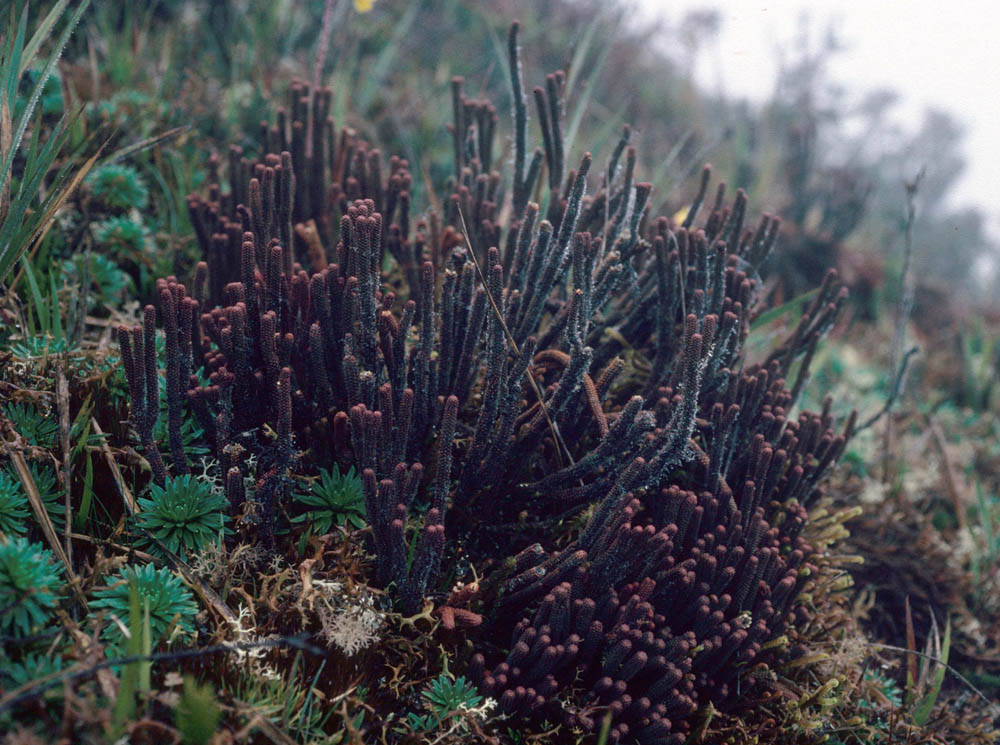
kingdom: Plantae
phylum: Tracheophyta
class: Lycopodiopsida
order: Lycopodiales
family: Lycopodiaceae
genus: Phlegmariurus
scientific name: Phlegmariurus sellifolius
